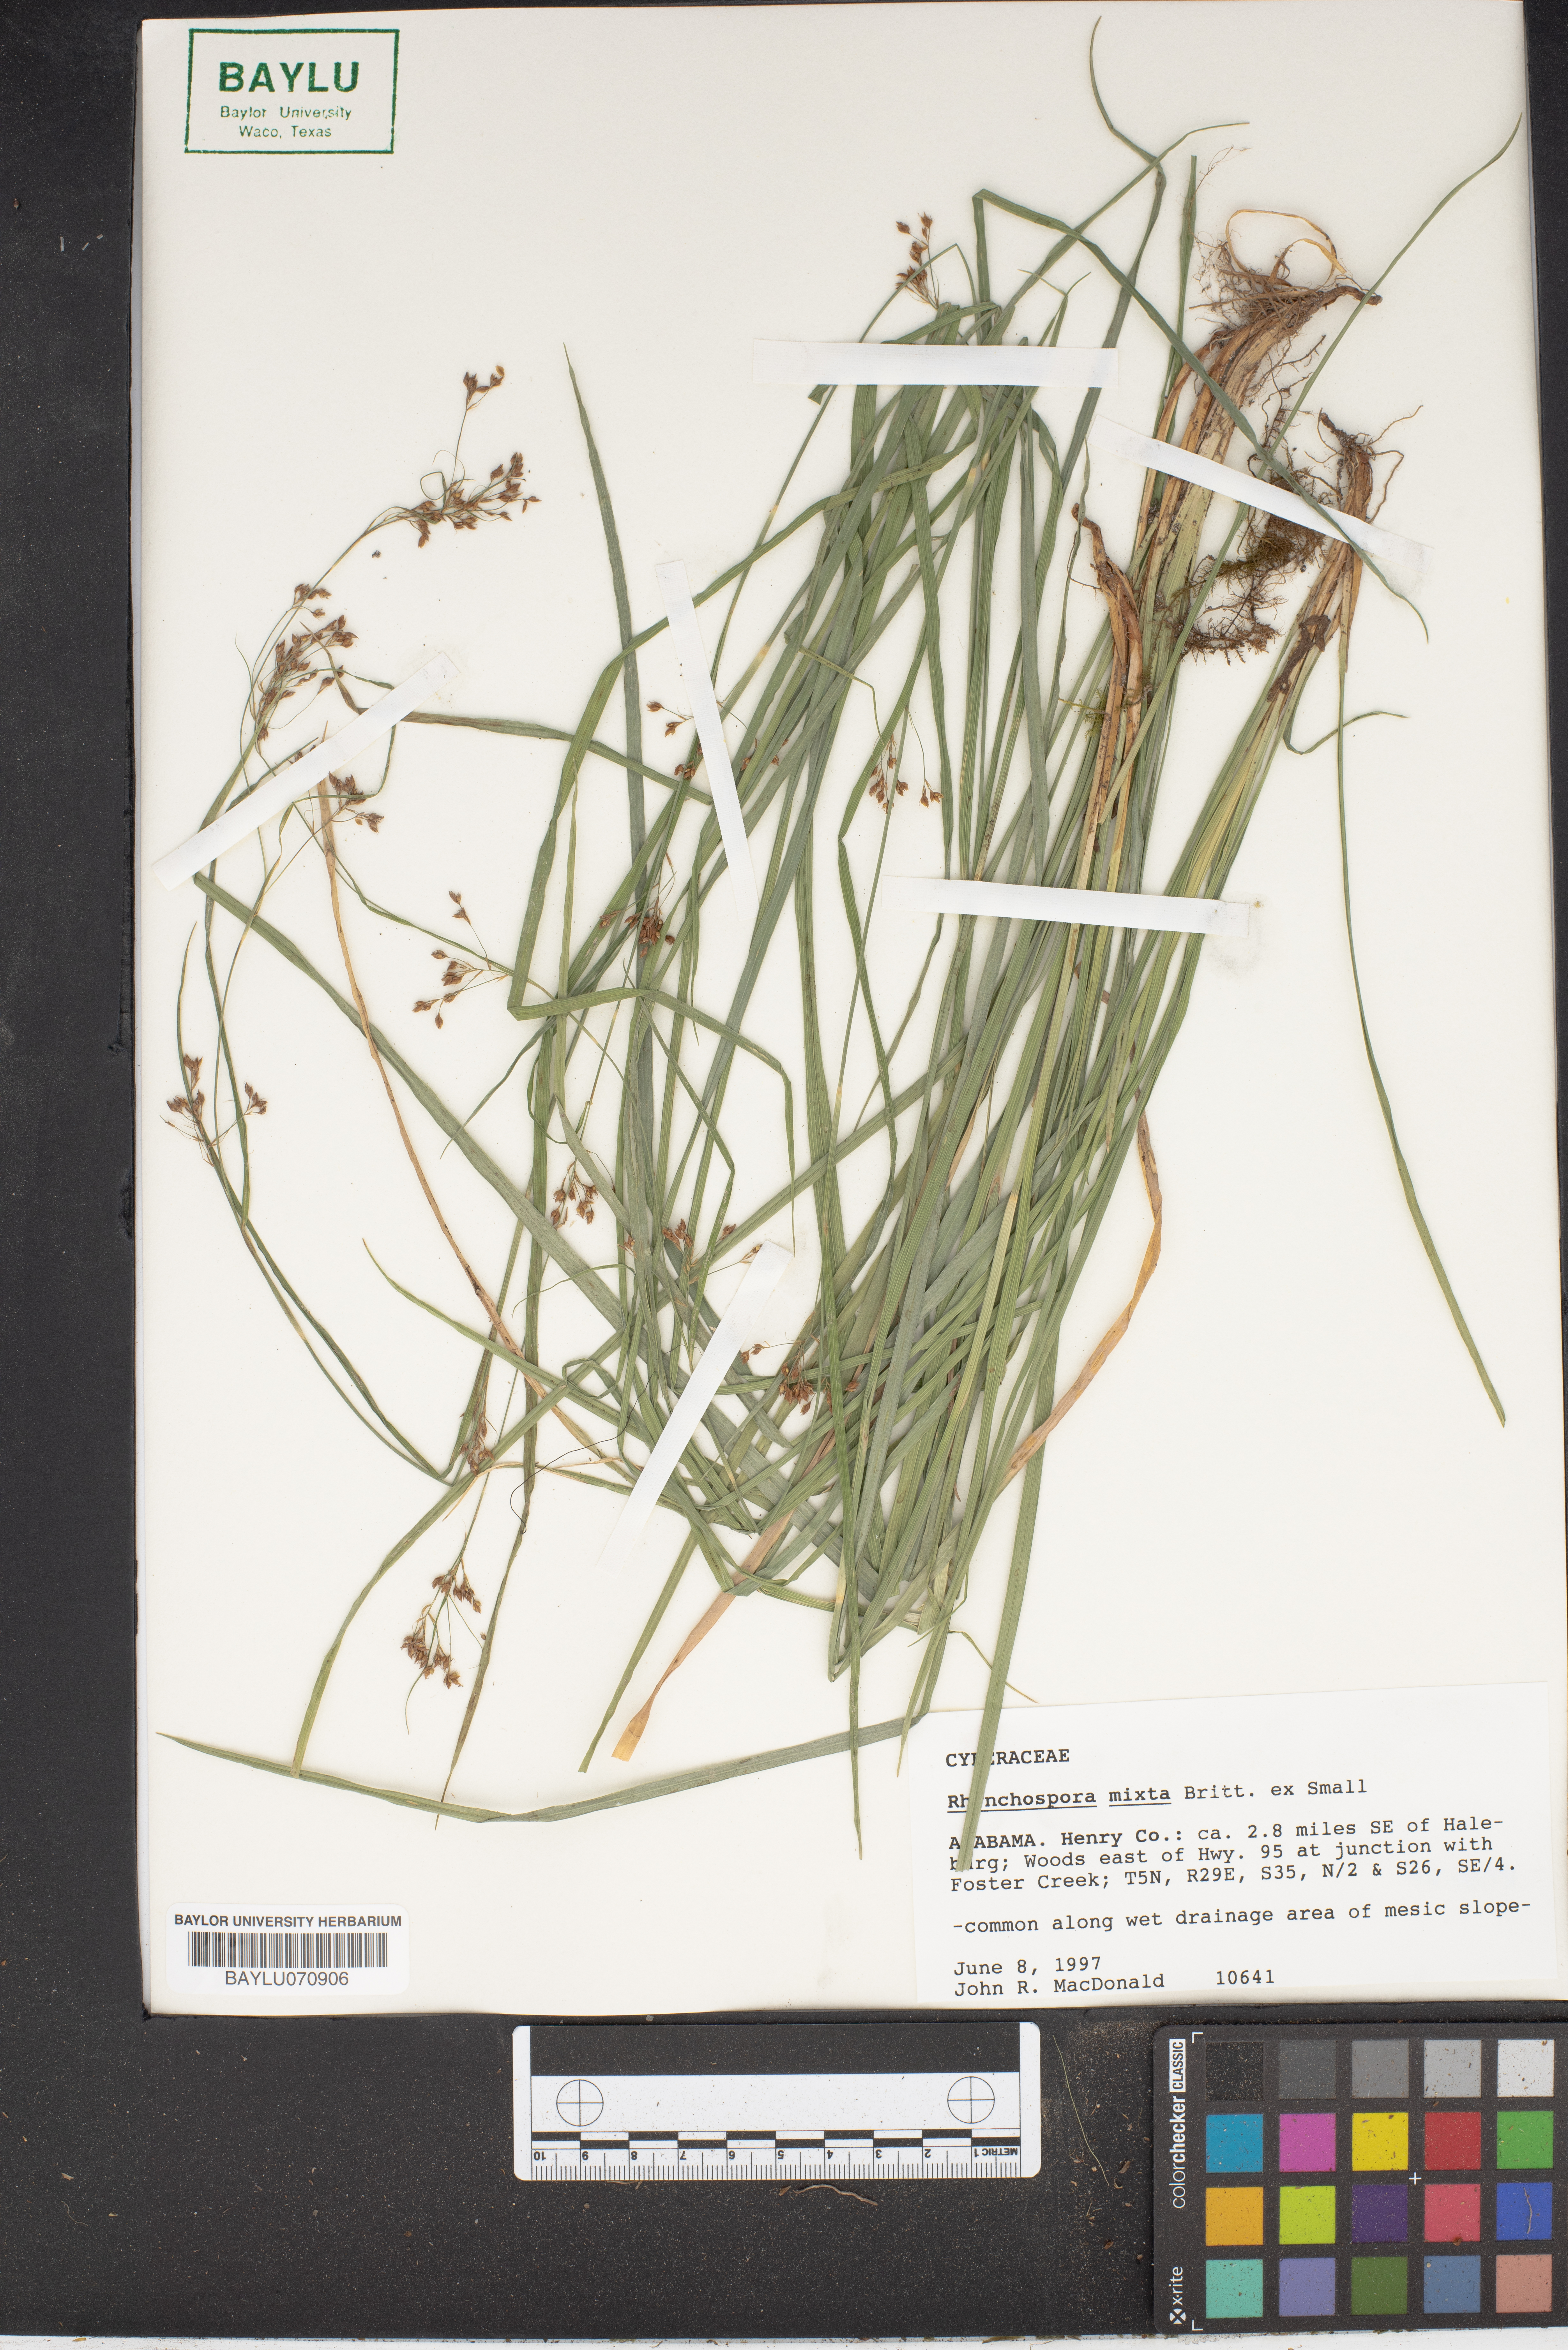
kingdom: Plantae
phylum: Tracheophyta
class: Liliopsida
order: Poales
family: Cyperaceae
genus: Rhynchospora
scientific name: Rhynchospora mixta
